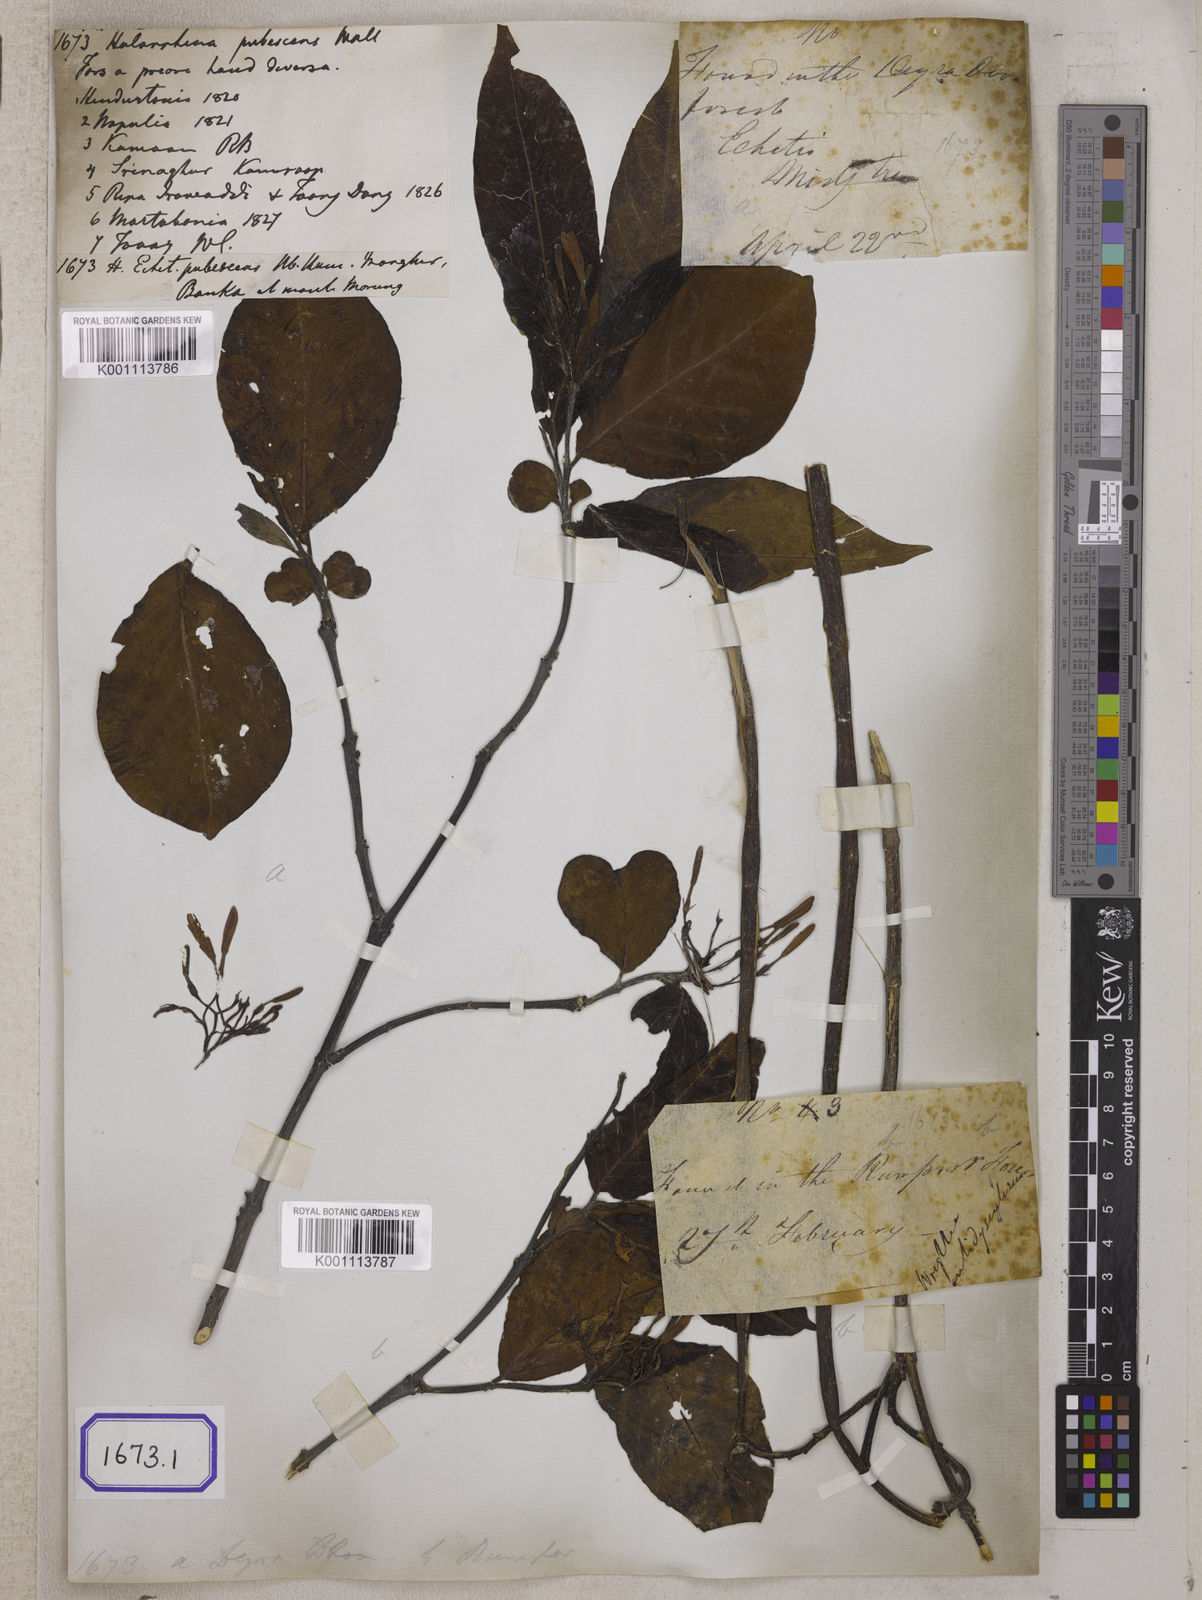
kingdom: Plantae
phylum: Tracheophyta
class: Magnoliopsida
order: Gentianales
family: Apocynaceae
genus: Holarrhena
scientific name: Holarrhena
